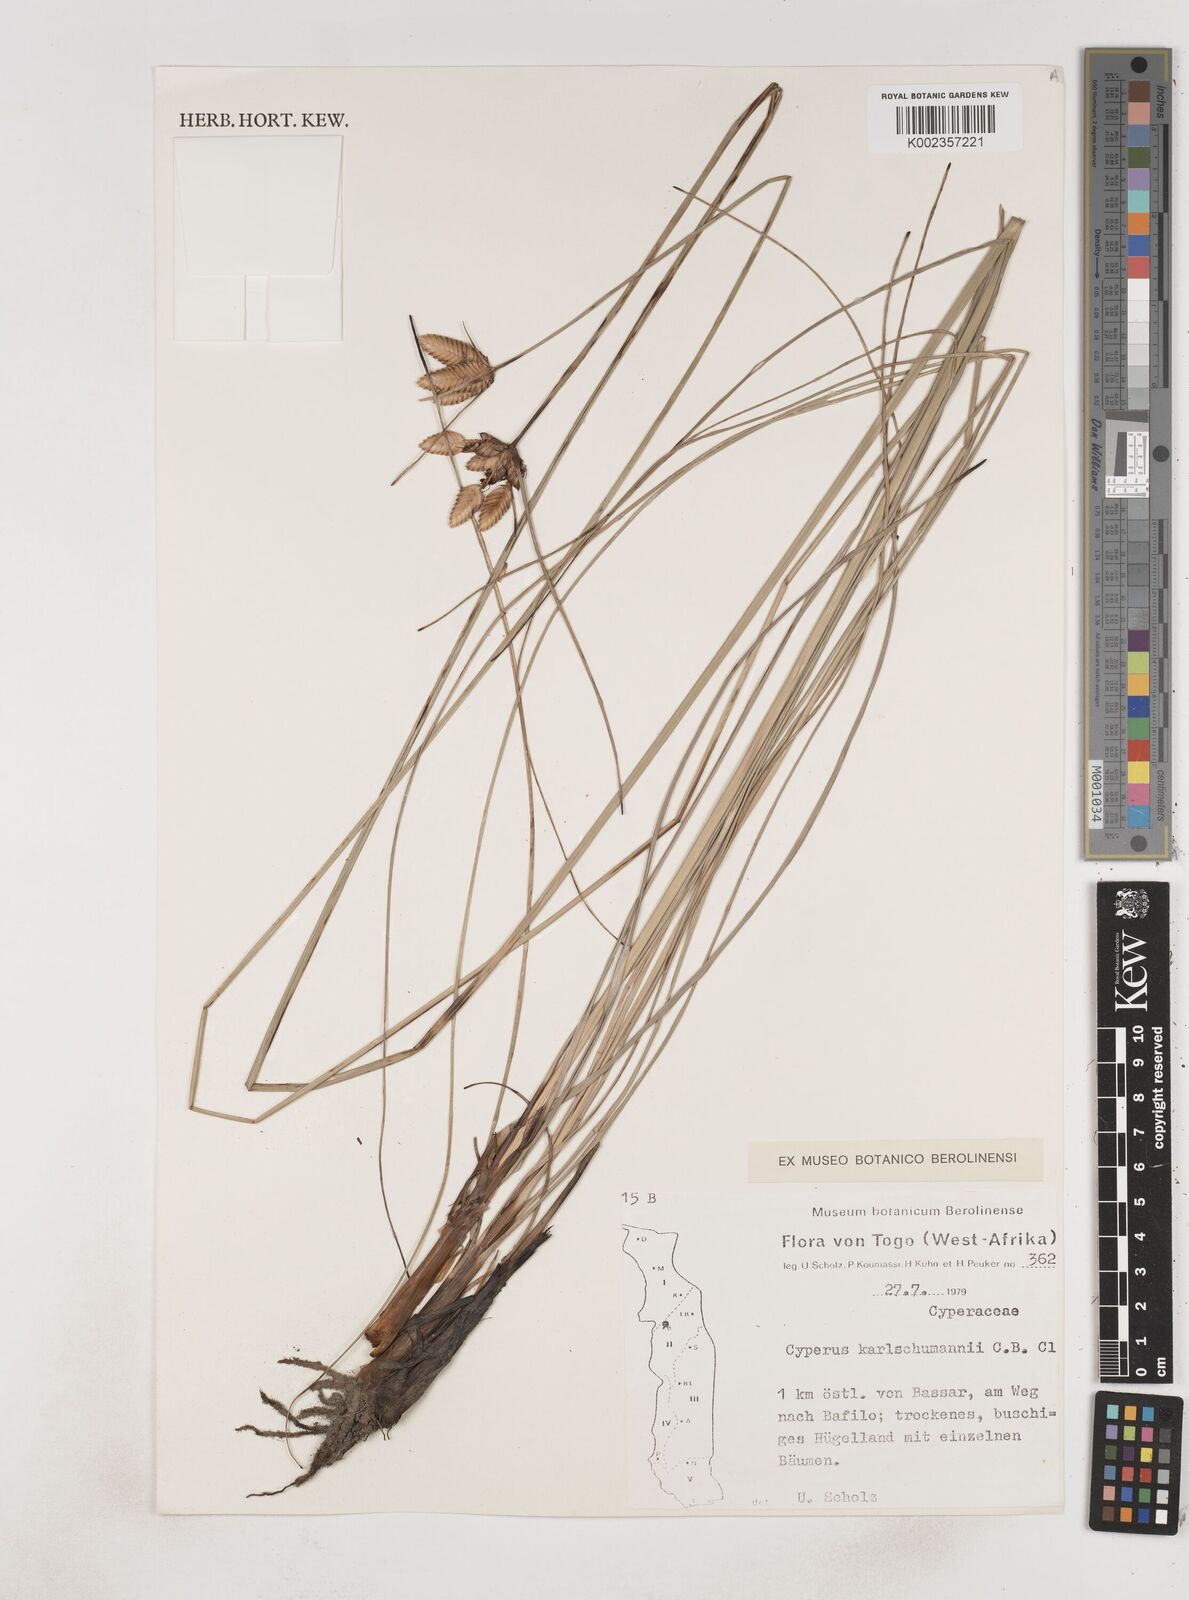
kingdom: Plantae
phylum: Tracheophyta
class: Liliopsida
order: Poales
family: Cyperaceae
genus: Cyperus
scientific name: Cyperus karlschumannii
